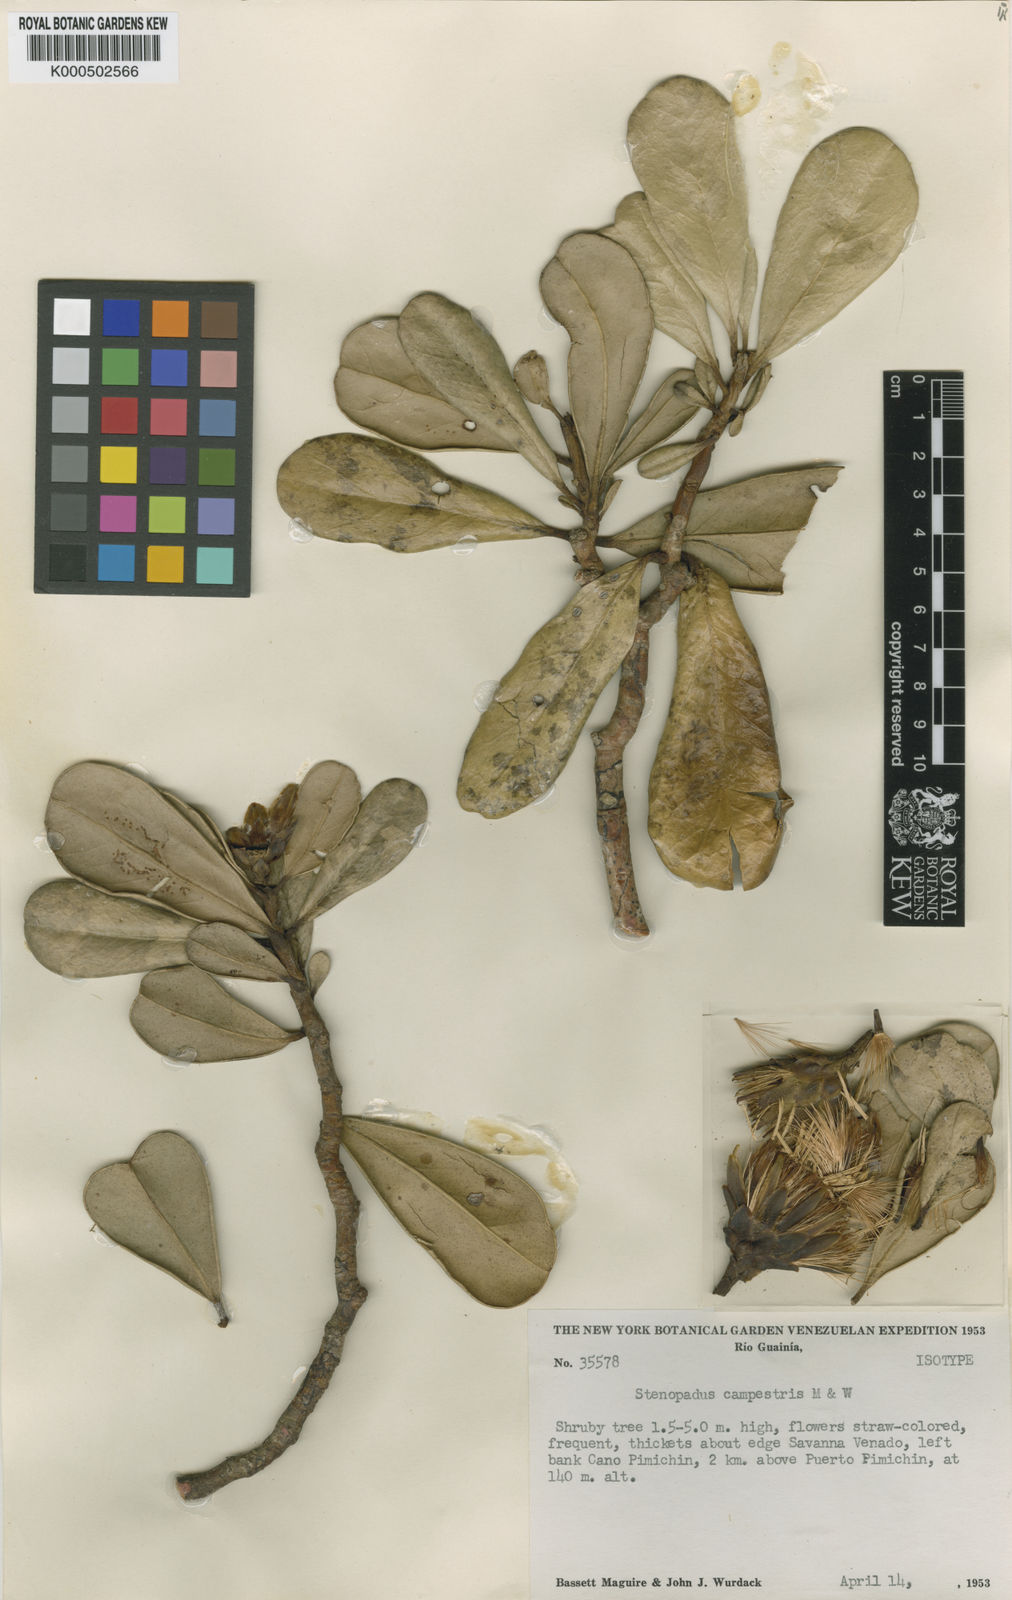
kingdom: Plantae
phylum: Tracheophyta
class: Magnoliopsida
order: Asterales
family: Asteraceae
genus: Stenopadus
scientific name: Stenopadus campestris
